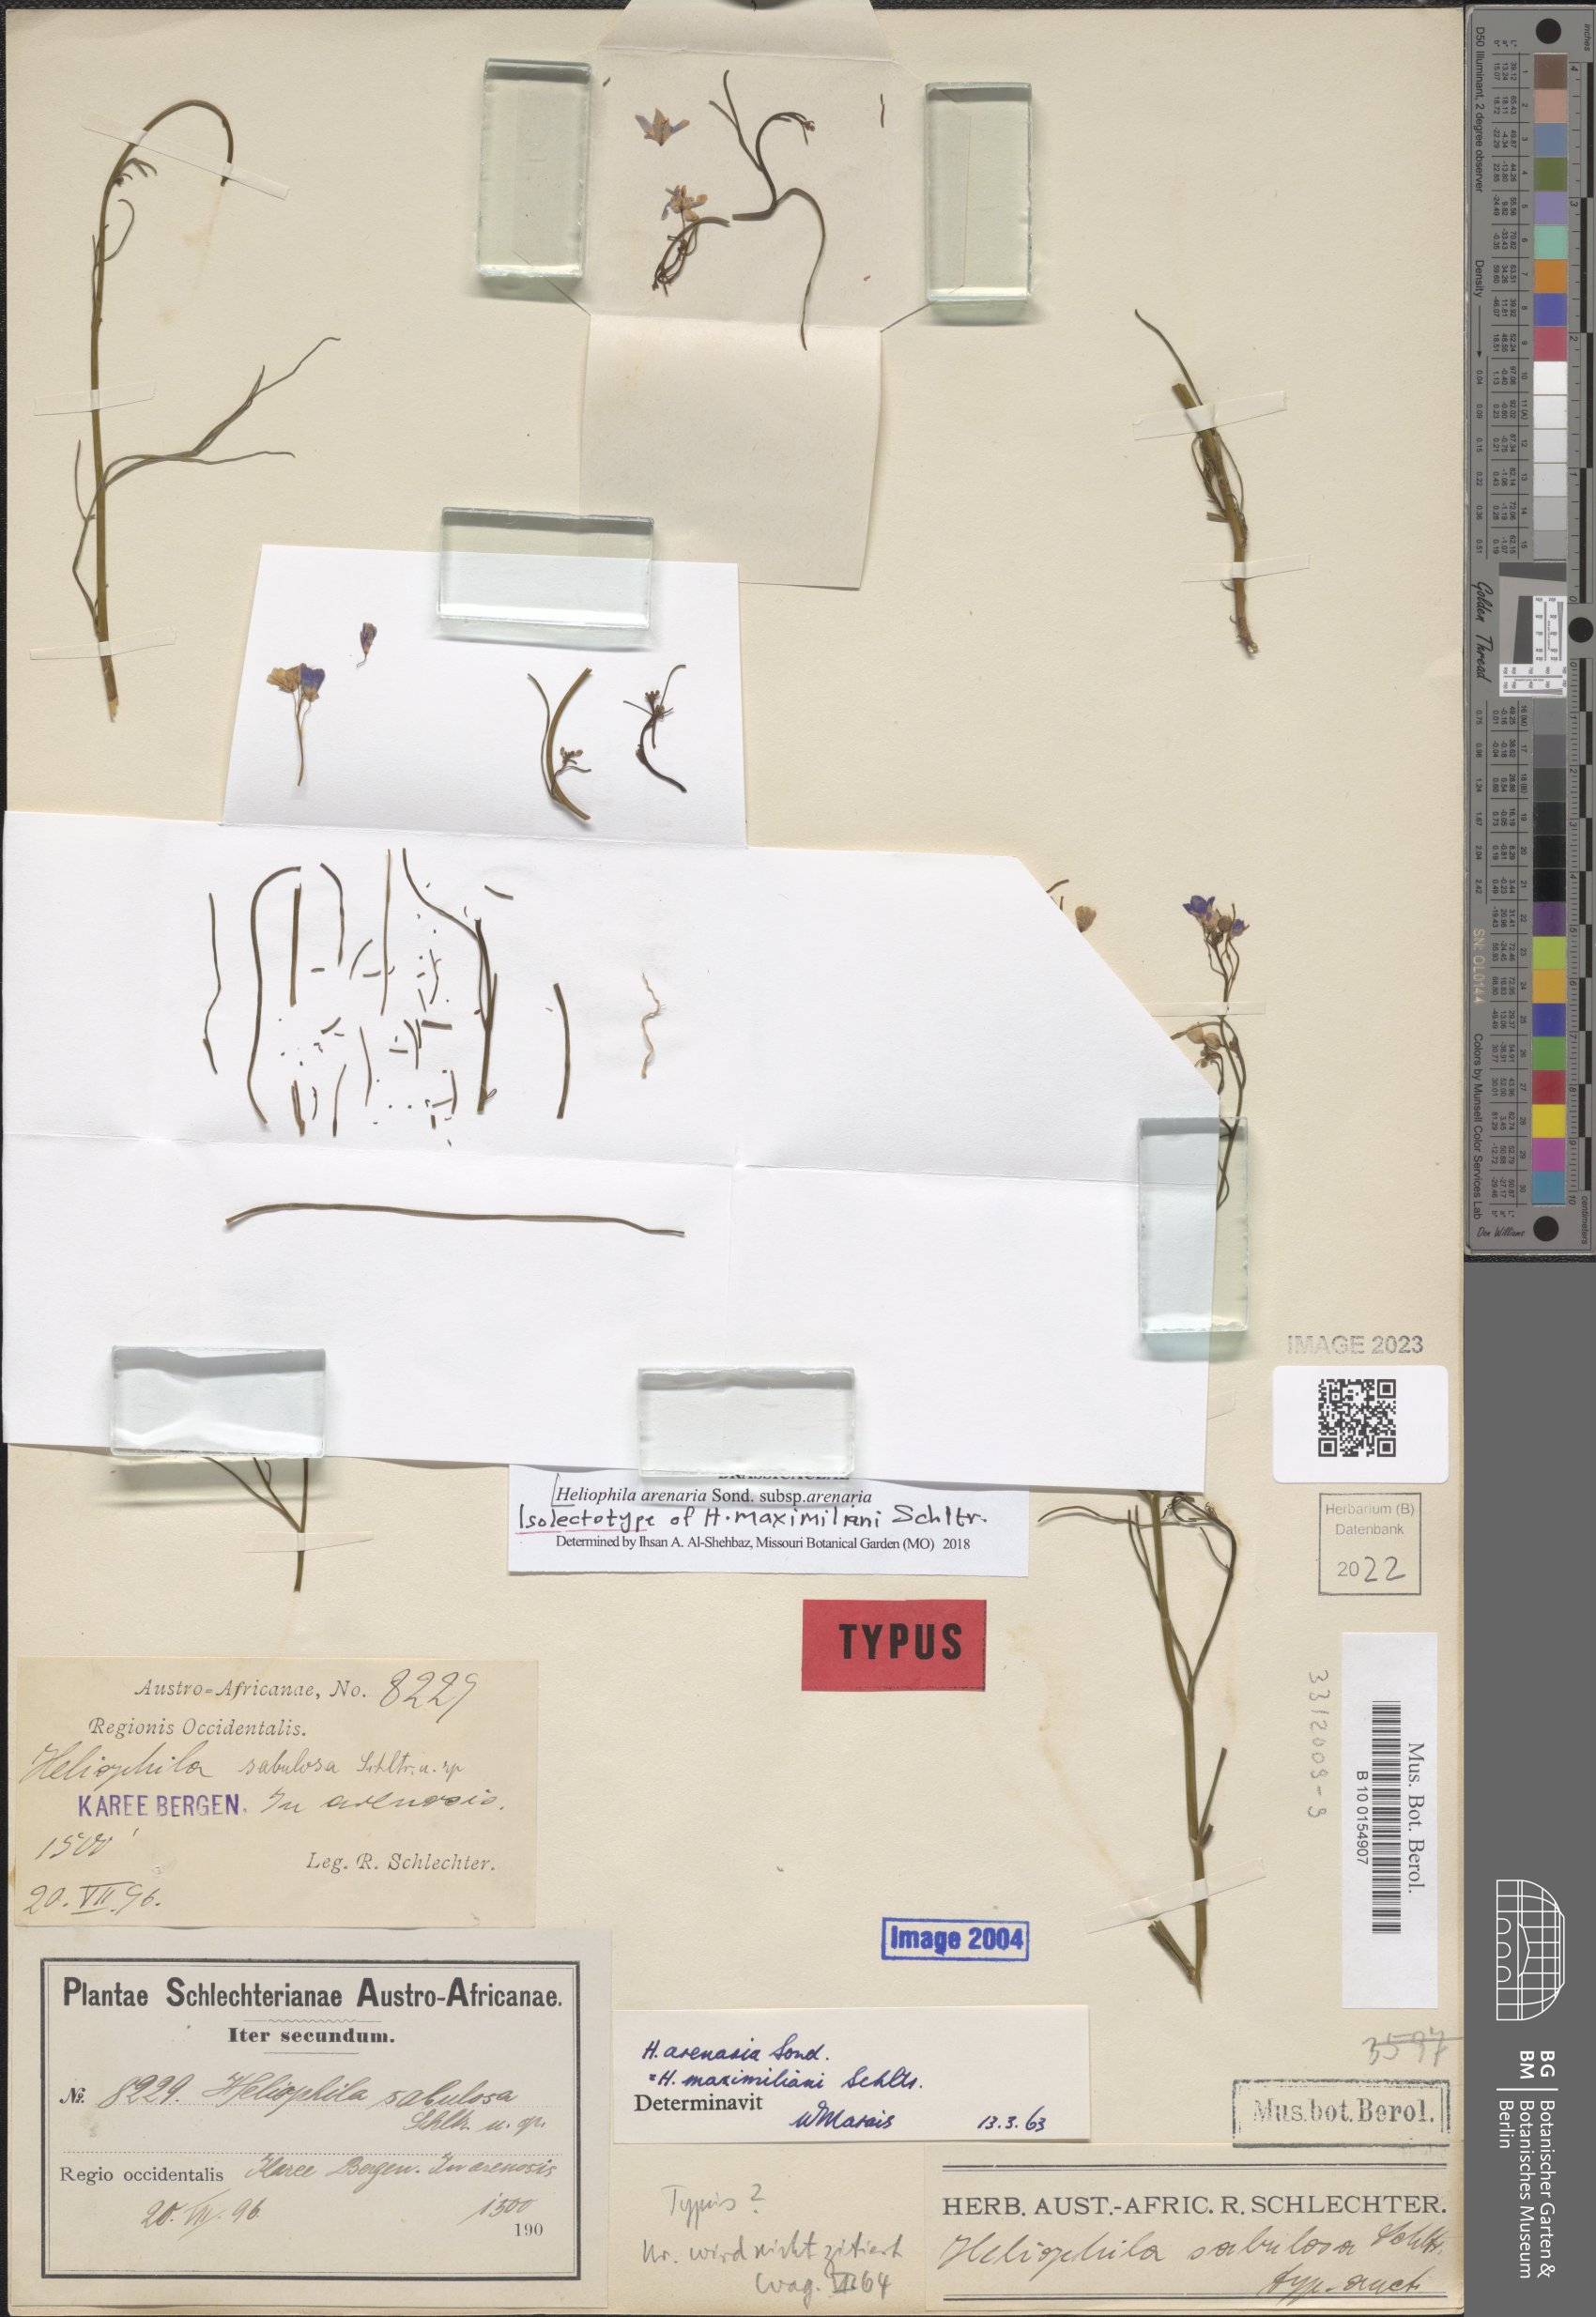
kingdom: Plantae
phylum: Tracheophyta
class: Magnoliopsida
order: Brassicales
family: Brassicaceae
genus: Heliophila
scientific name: Heliophila arenaria
